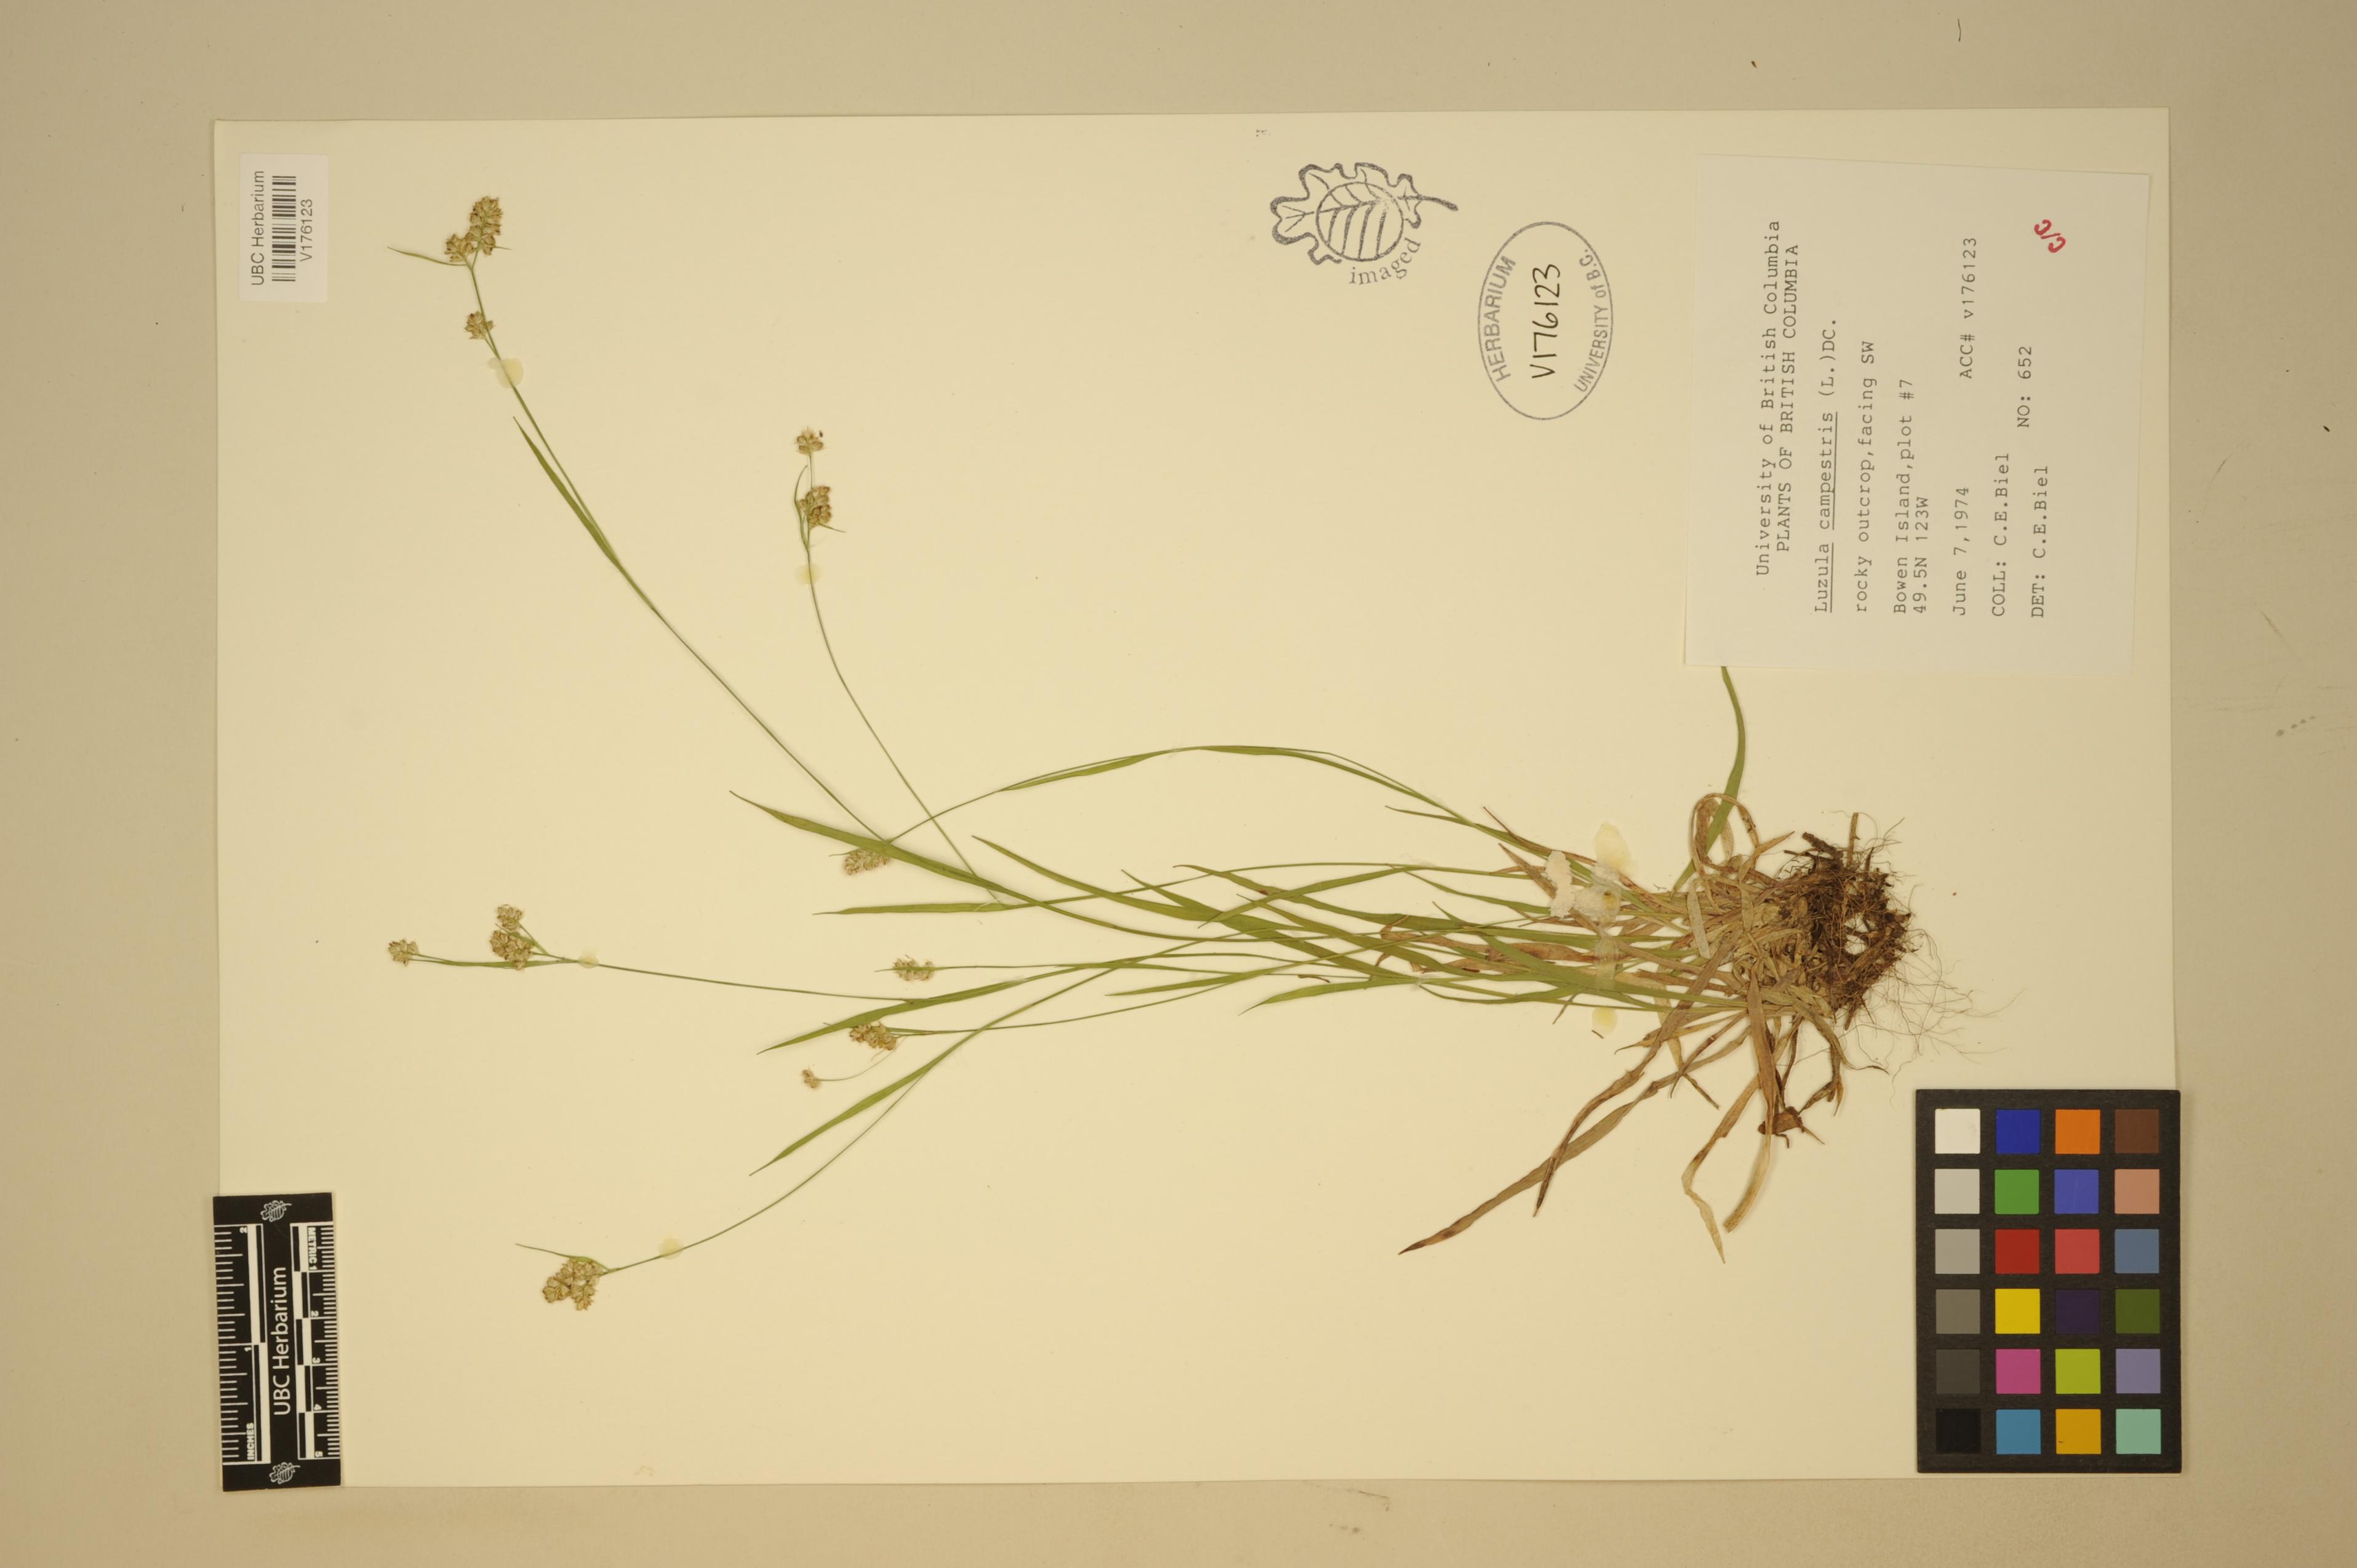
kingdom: Plantae
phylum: Tracheophyta
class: Liliopsida
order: Poales
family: Juncaceae
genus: Luzula
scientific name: Luzula comosa
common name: Pacific woodrush
